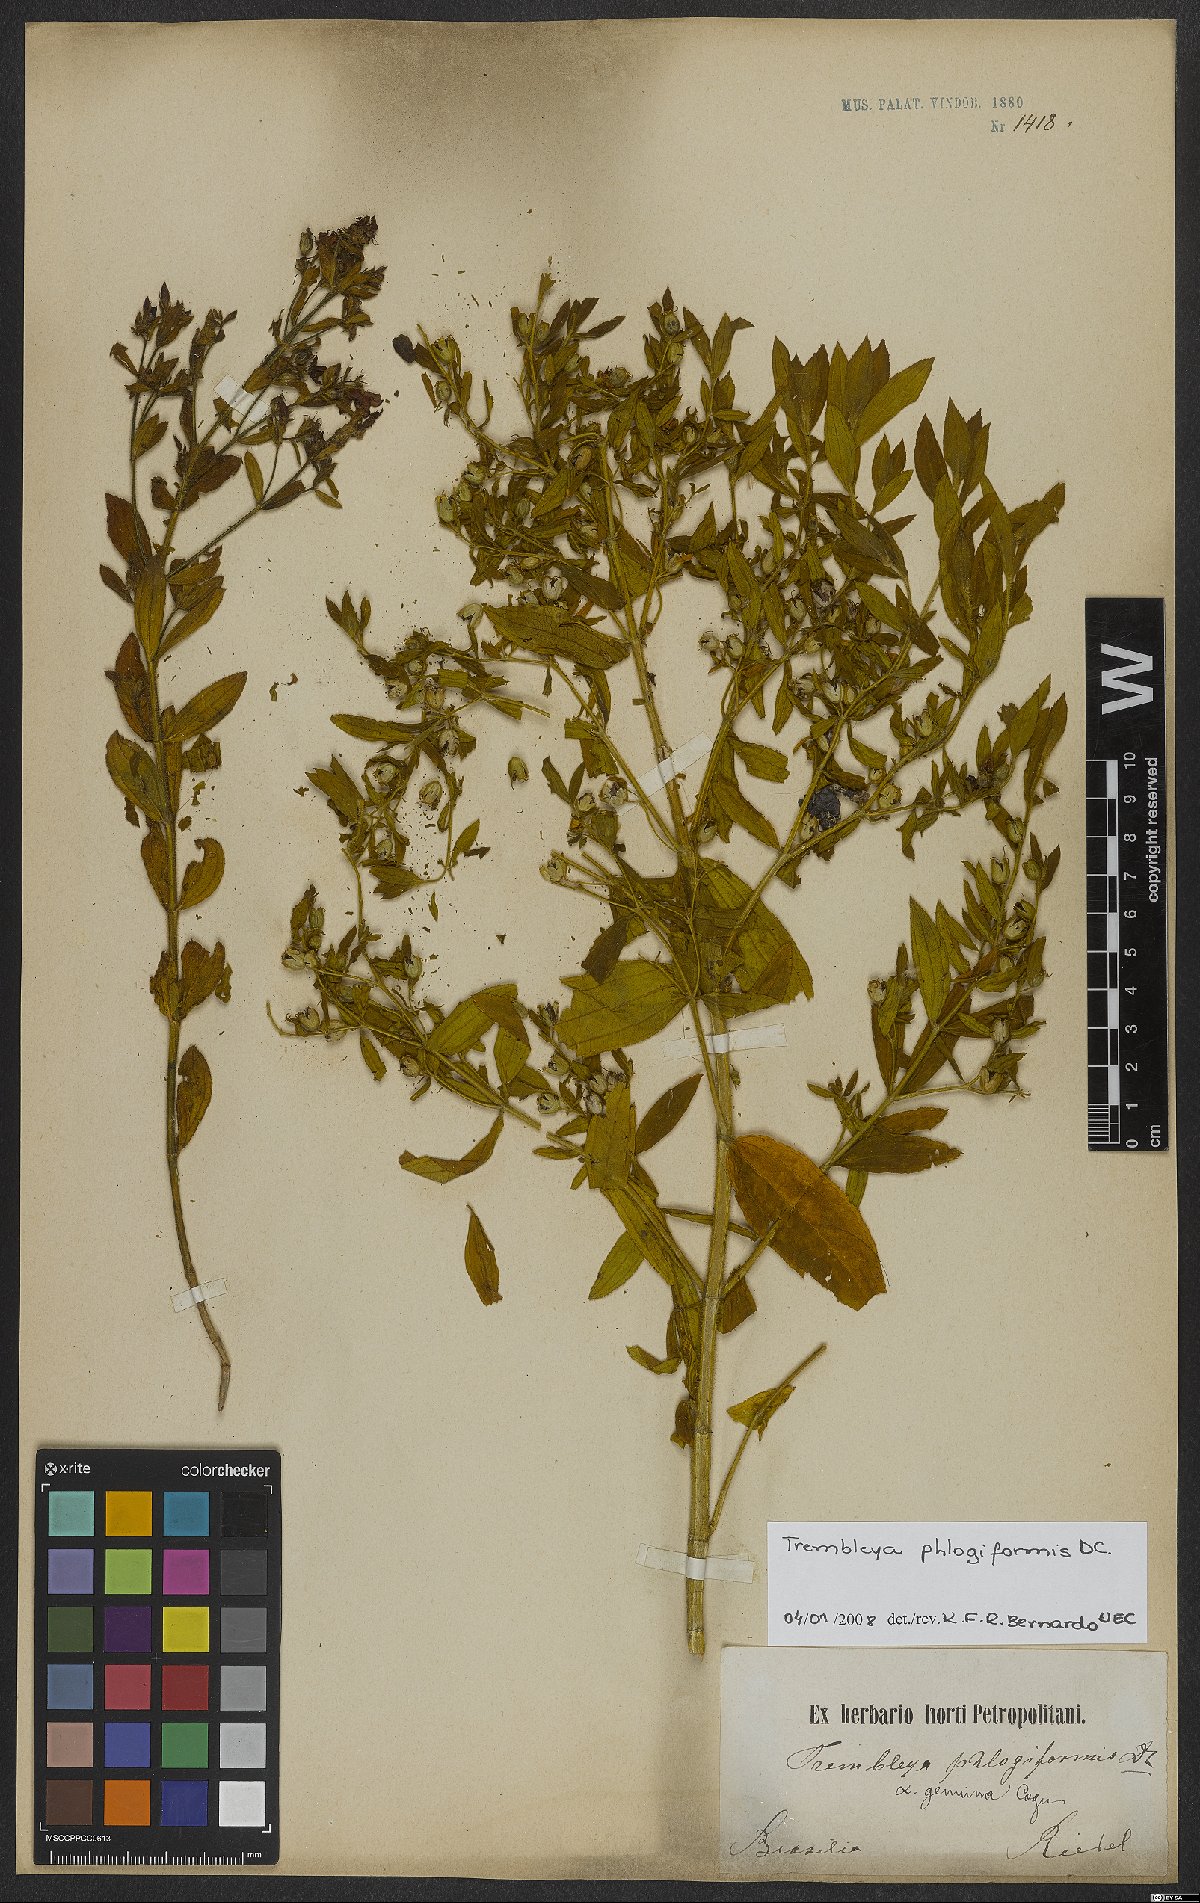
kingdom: Plantae
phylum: Tracheophyta
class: Magnoliopsida
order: Myrtales
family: Melastomataceae
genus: Microlicia
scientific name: Microlicia phlogiformis
